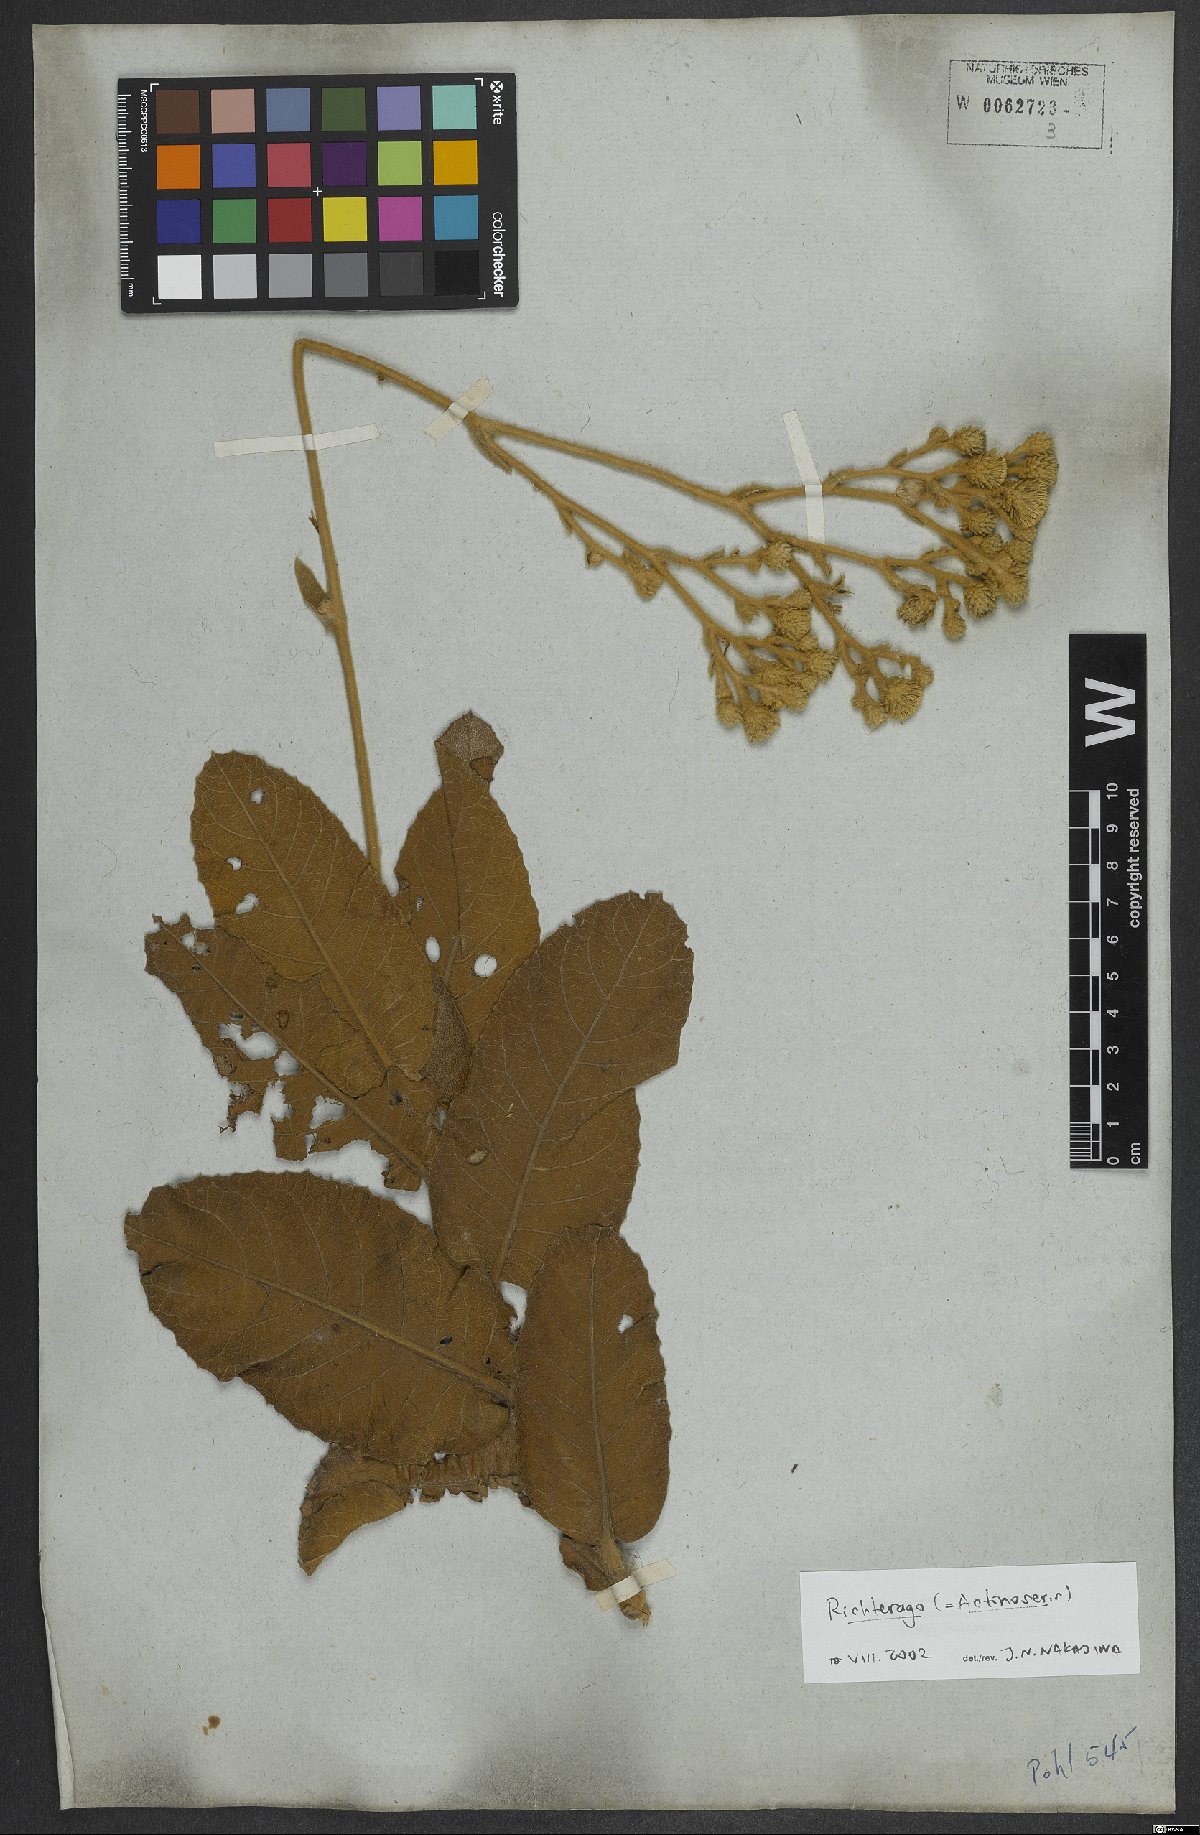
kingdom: Animalia
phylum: Cnidaria
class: Anthozoa
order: Scleractinia
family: Asteroseriidae
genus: Actinoseris
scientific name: Actinoseris
